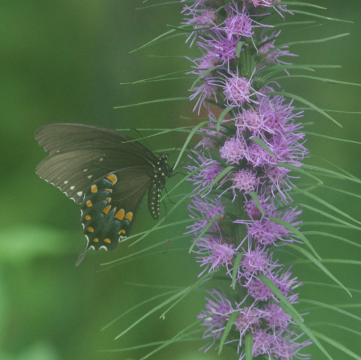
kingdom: Animalia
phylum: Arthropoda
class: Insecta
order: Lepidoptera
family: Papilionidae
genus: Pterourus
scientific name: Pterourus troilus
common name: Spicebush Swallowtail
